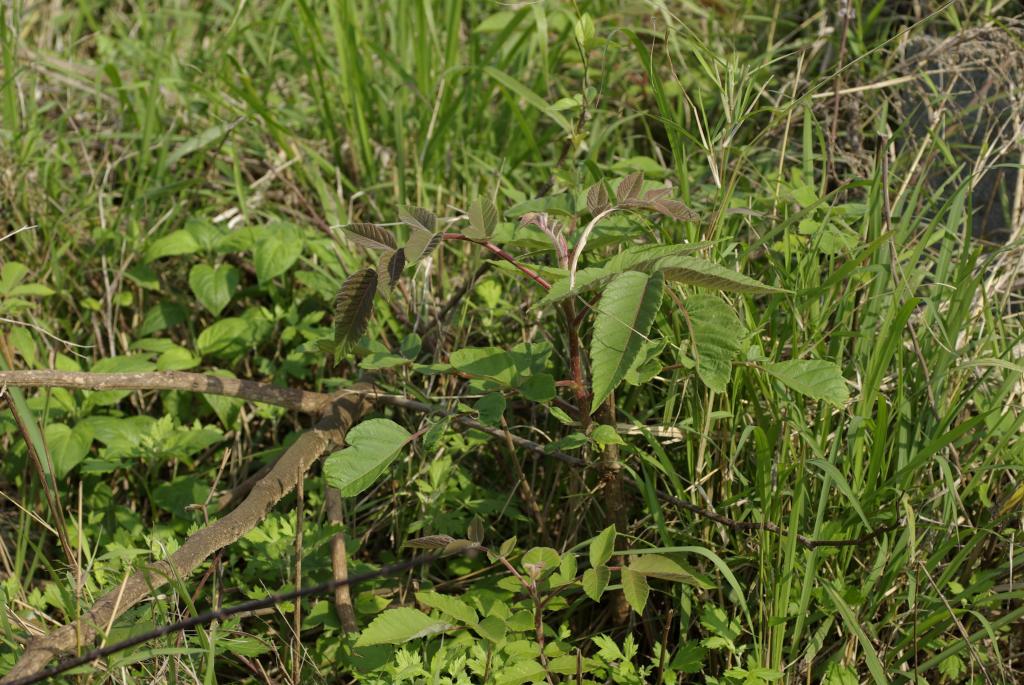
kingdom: Plantae
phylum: Tracheophyta
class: Magnoliopsida
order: Sapindales
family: Anacardiaceae
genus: Rhus
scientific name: Rhus chinensis
